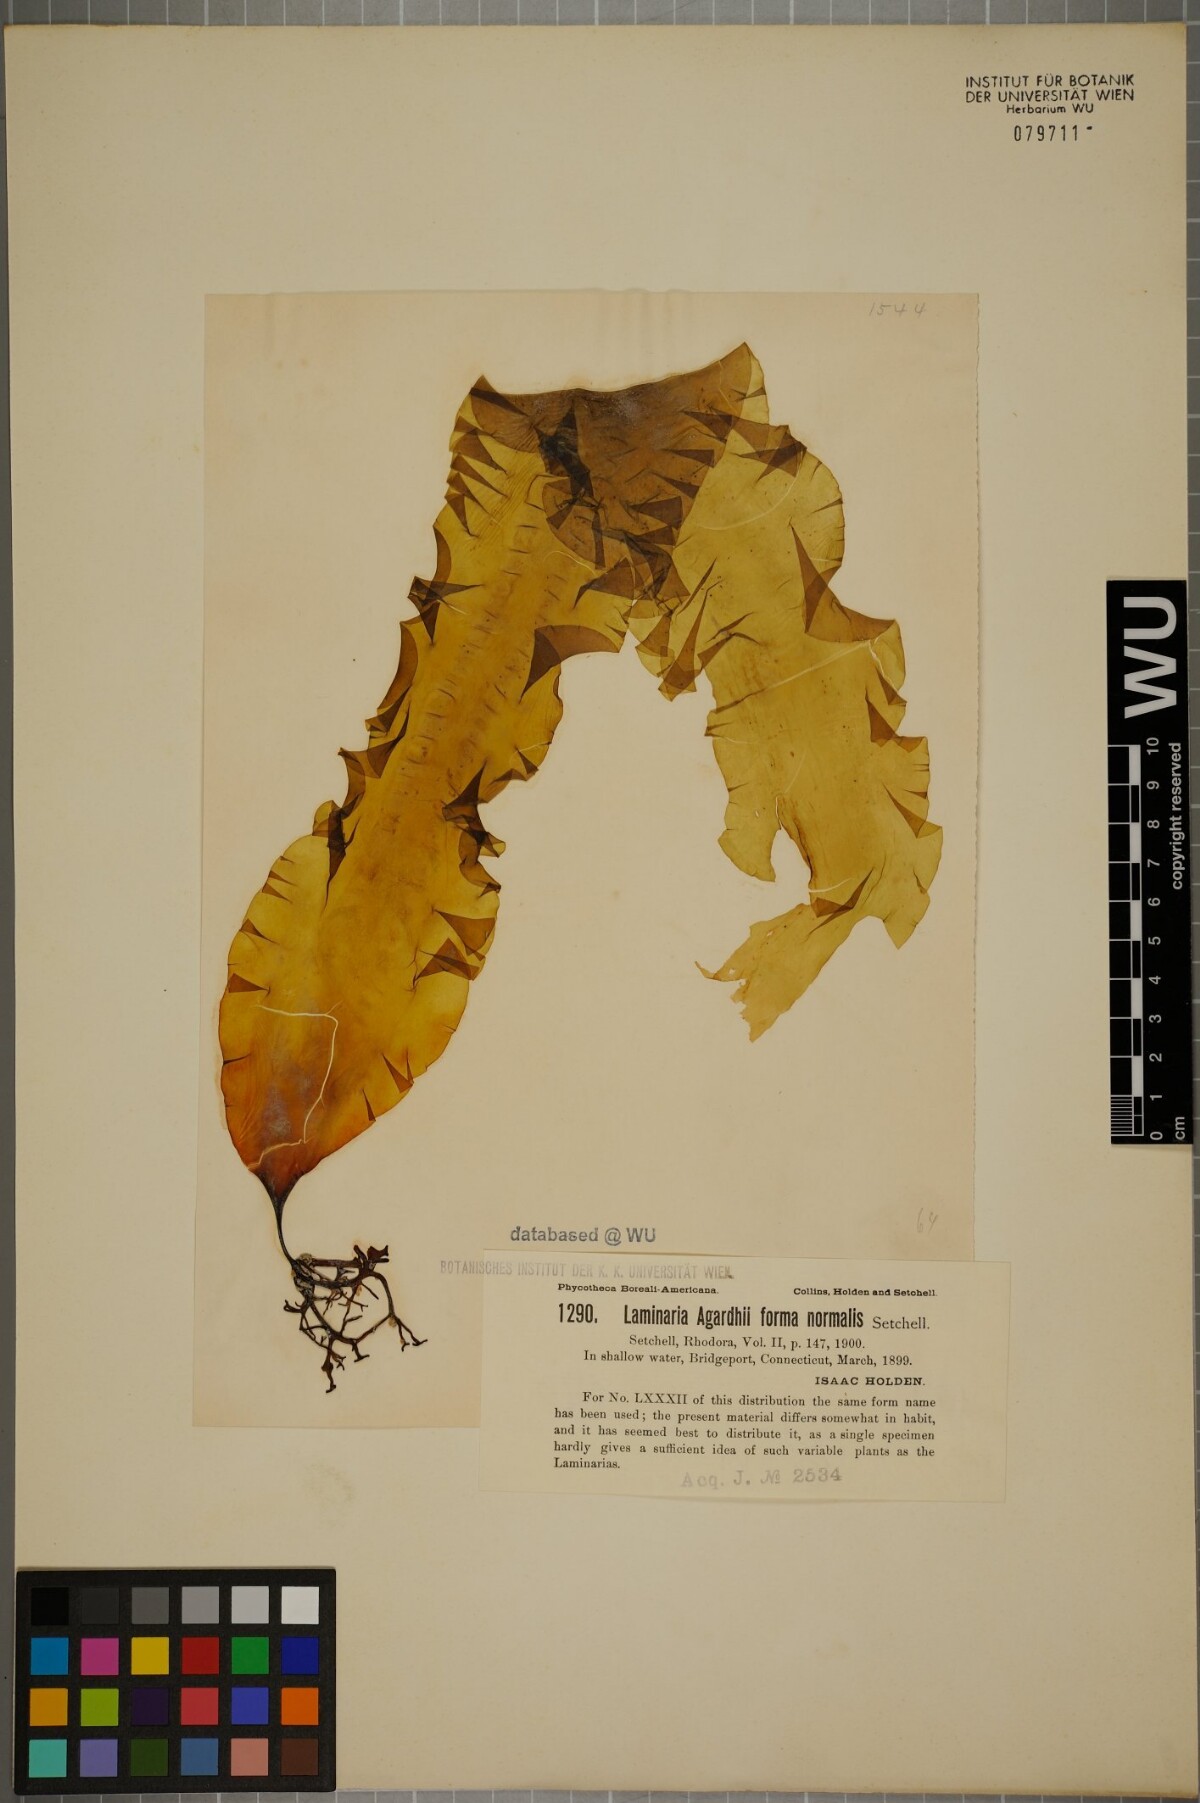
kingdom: Chromista
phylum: Ochrophyta
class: Phaeophyceae
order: Laminariales
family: Laminariaceae
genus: Saccharina
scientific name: Saccharina latissima
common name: Poor man's weather glass
